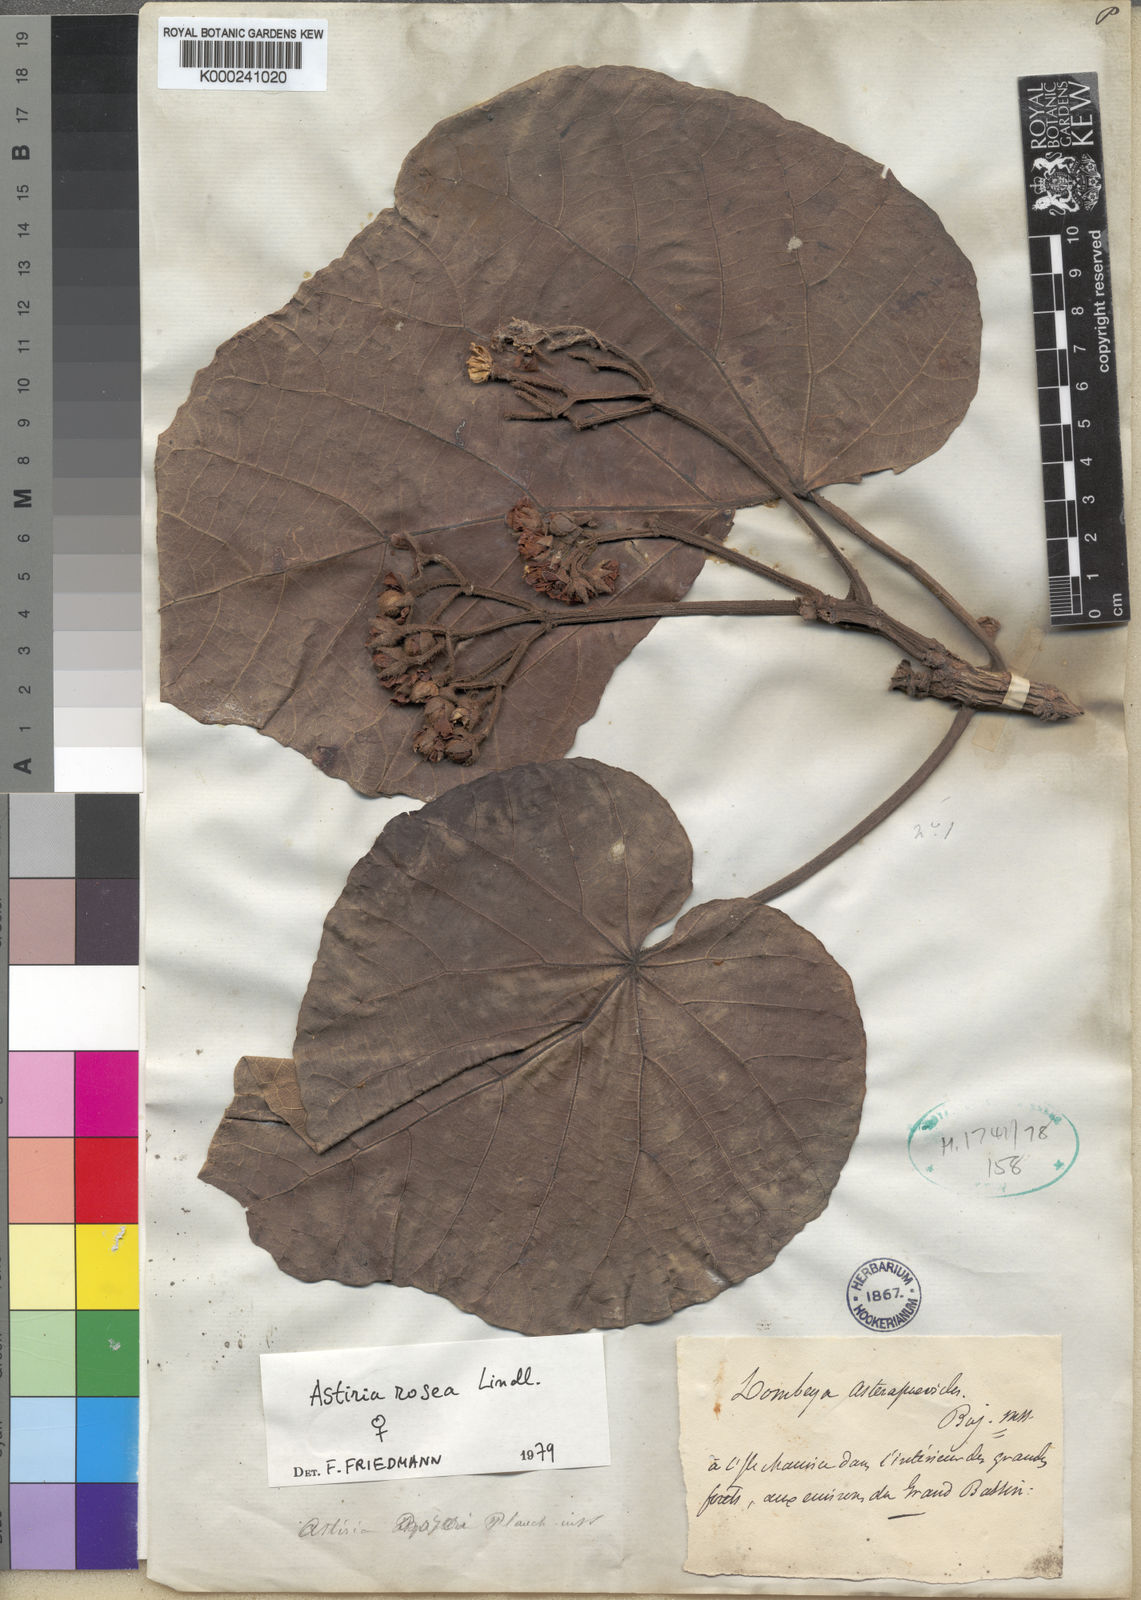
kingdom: Animalia
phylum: Arthropoda
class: Insecta
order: Hymenoptera
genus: Astiria
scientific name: Astiria
